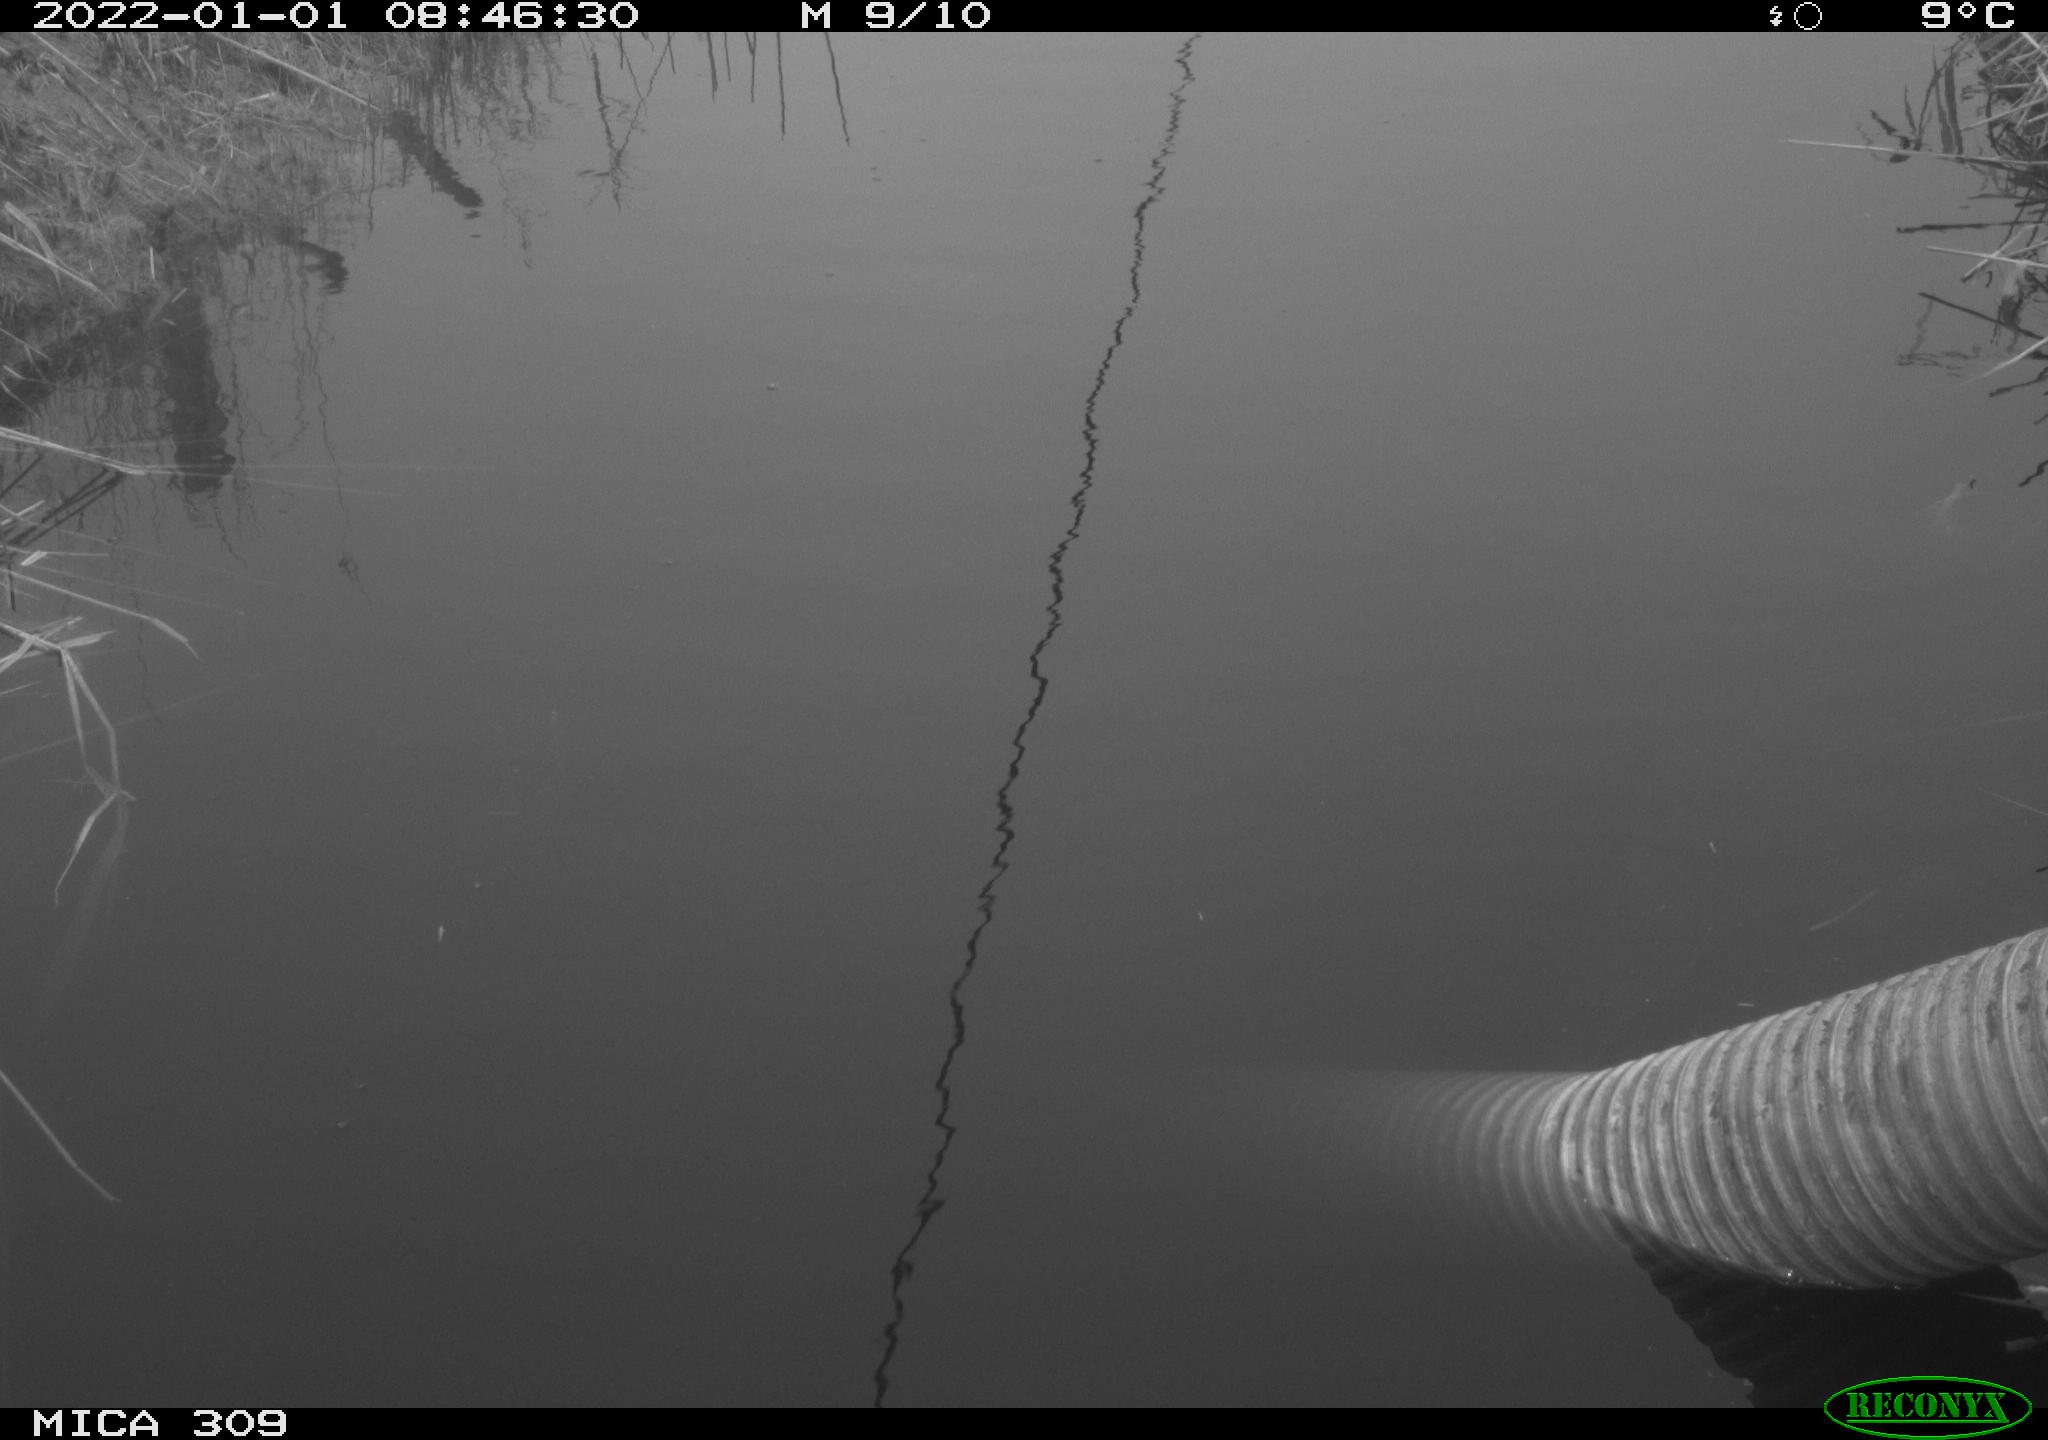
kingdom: Animalia
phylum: Chordata
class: Aves
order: Gruiformes
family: Rallidae
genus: Gallinula
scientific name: Gallinula chloropus
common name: Common moorhen
